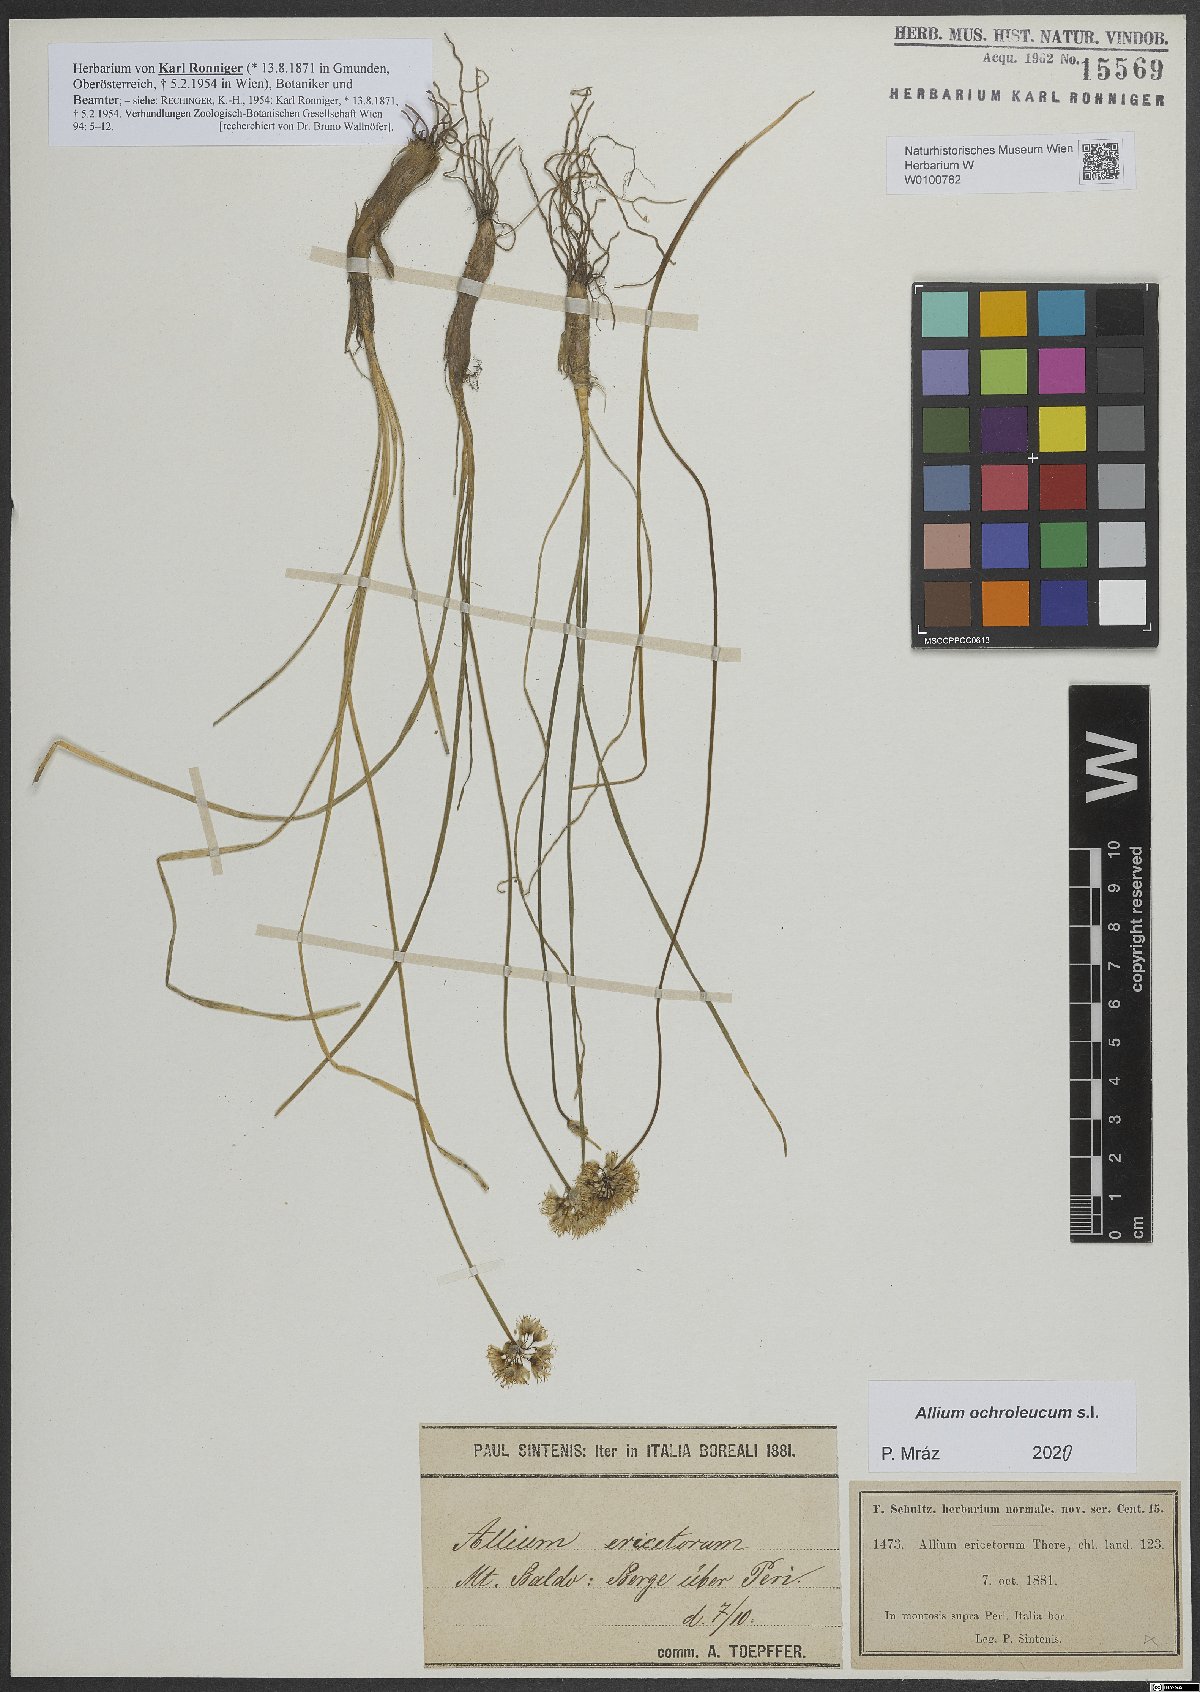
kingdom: Plantae
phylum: Tracheophyta
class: Liliopsida
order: Asparagales
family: Amaryllidaceae
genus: Allium
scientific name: Allium ericetorum
